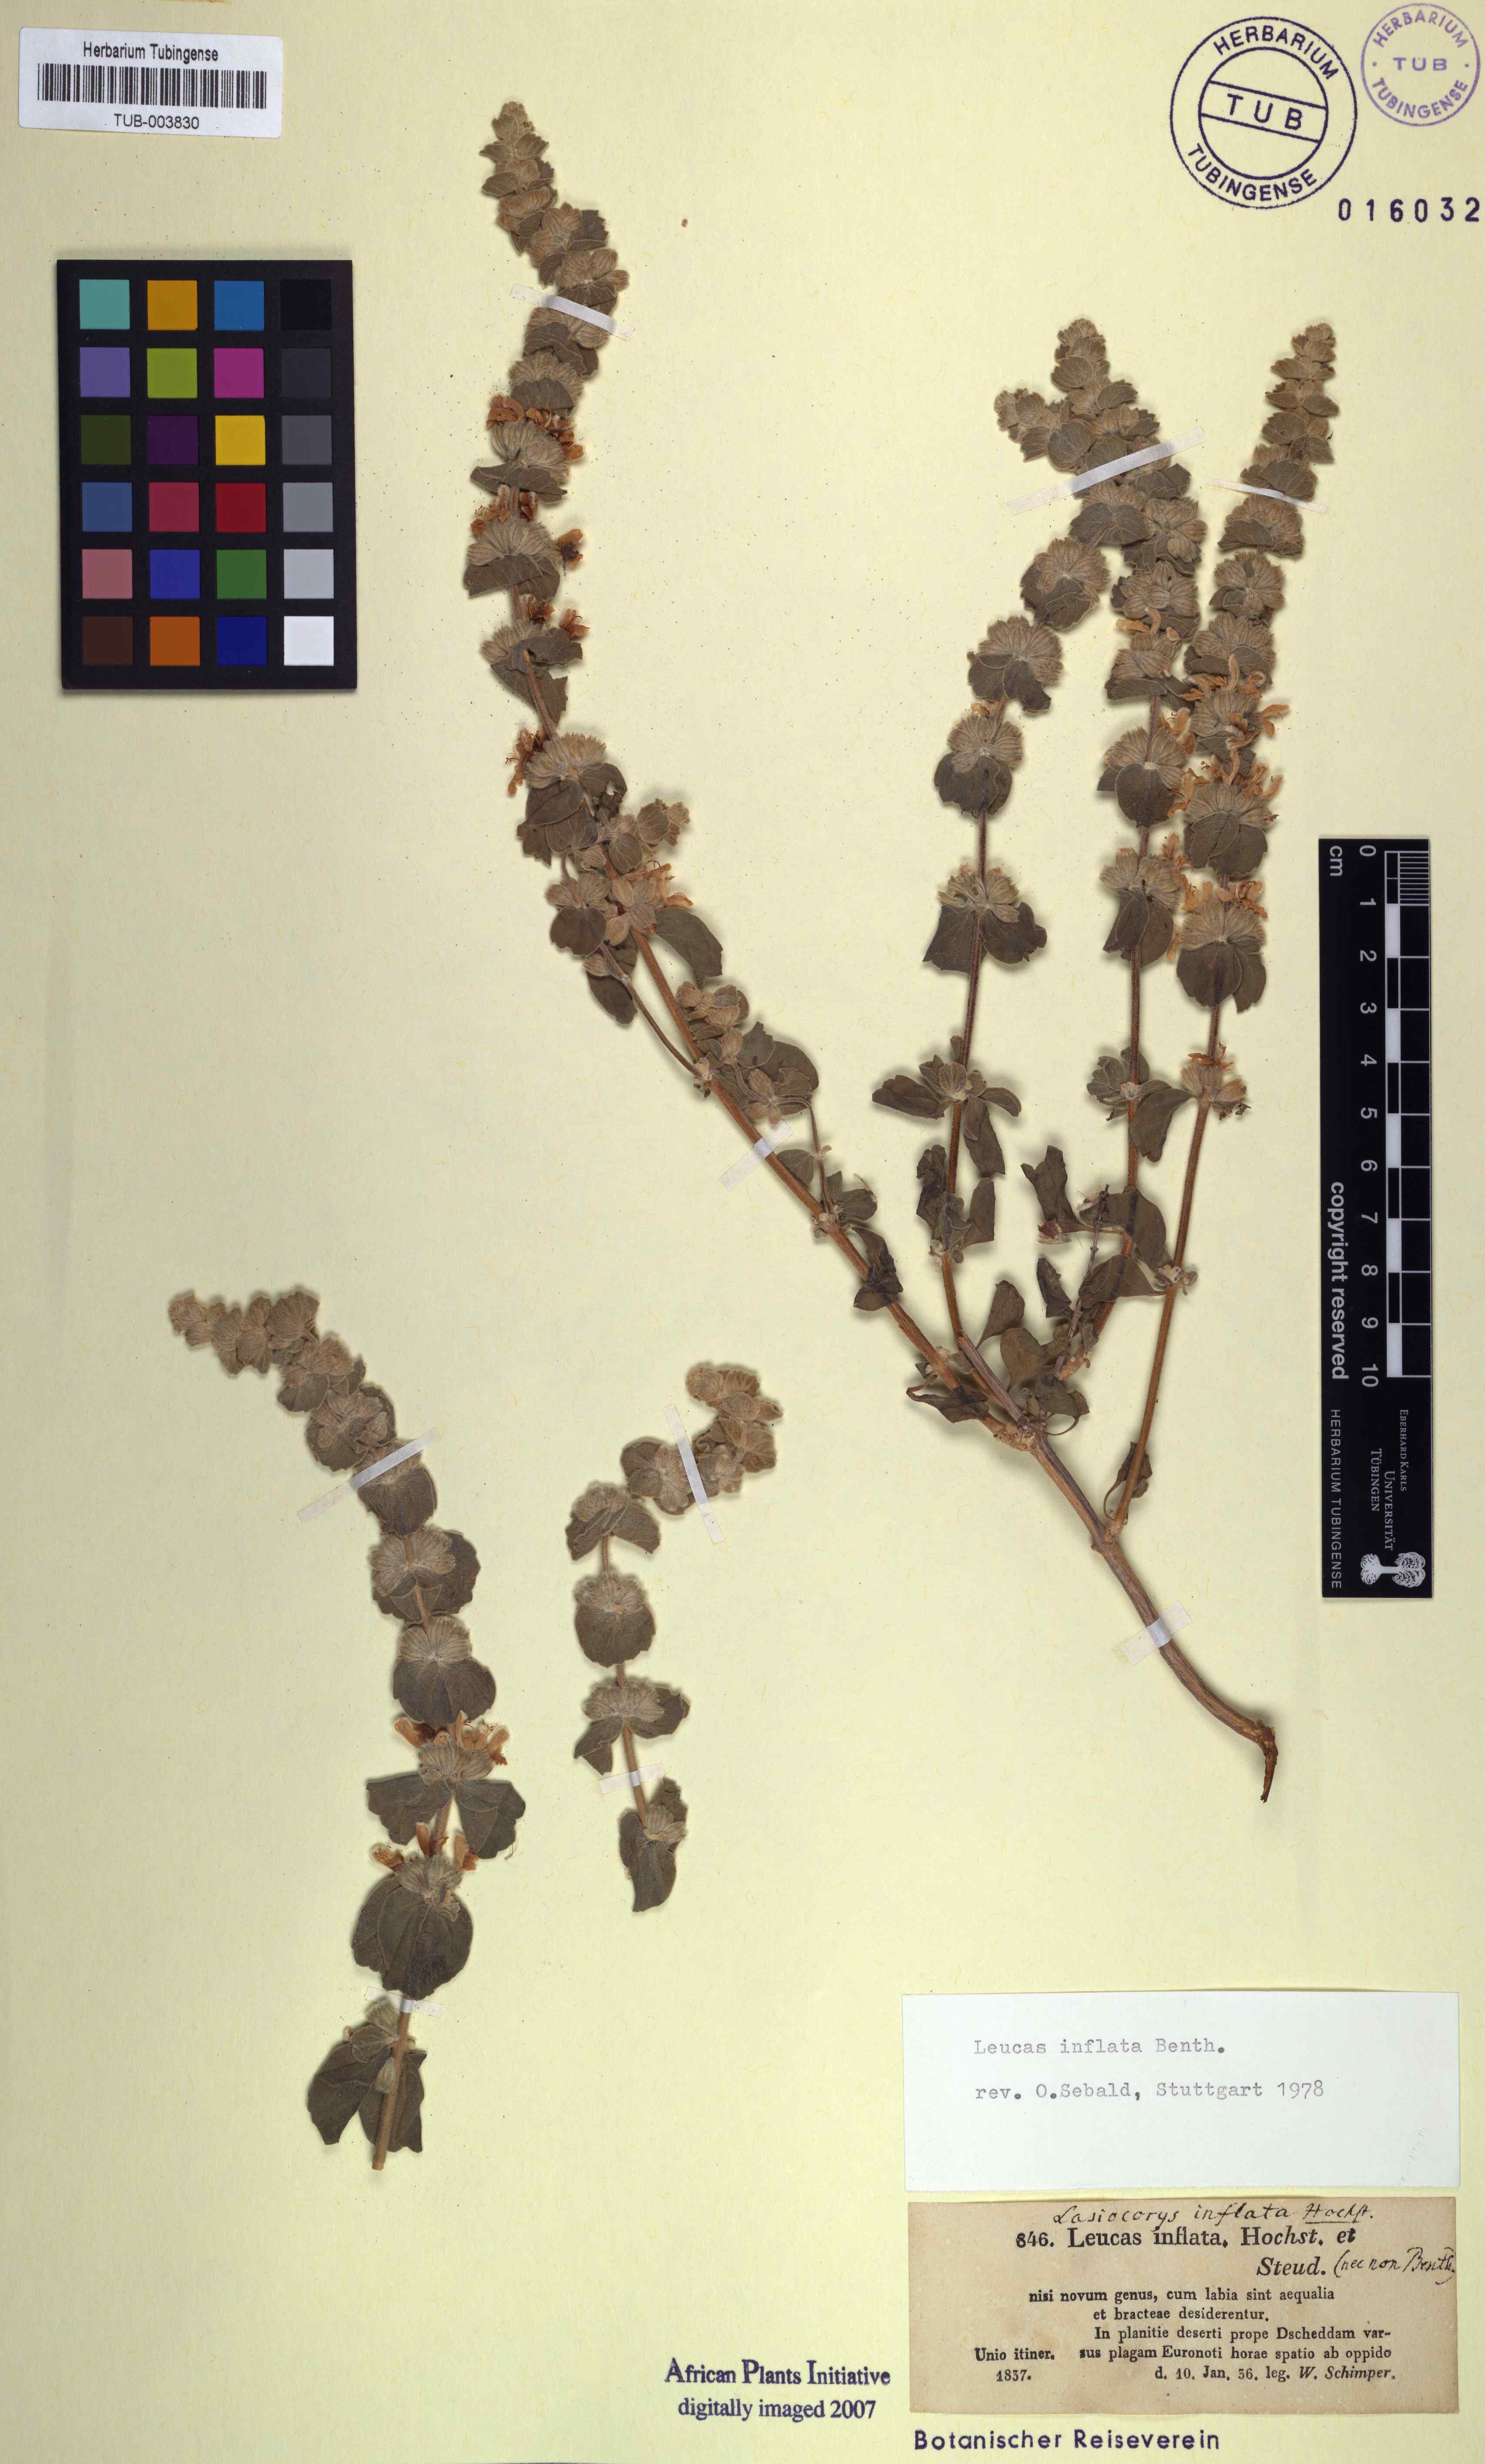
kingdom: Plantae
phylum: Tracheophyta
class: Magnoliopsida
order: Lamiales
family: Lamiaceae
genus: Leucas
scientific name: Leucas inflata
